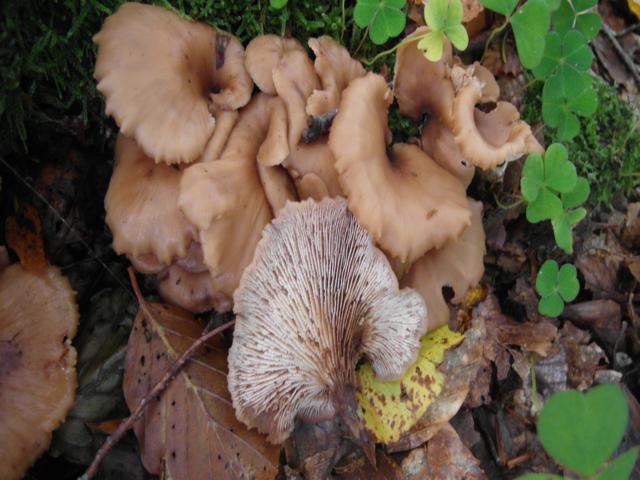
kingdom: Fungi
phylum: Basidiomycota
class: Agaricomycetes
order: Russulales
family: Auriscalpiaceae
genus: Lentinellus
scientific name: Lentinellus cochleatus
